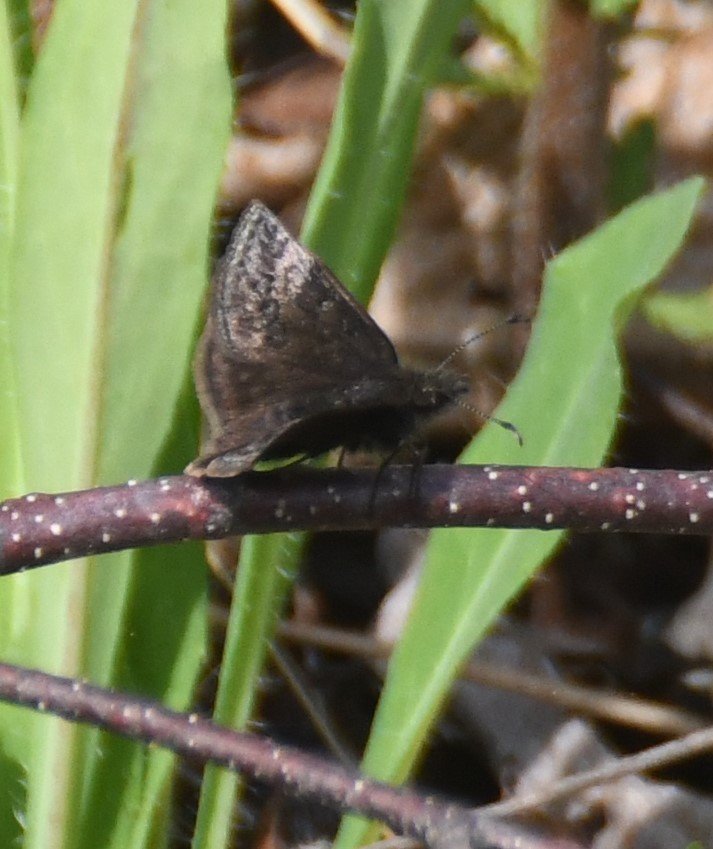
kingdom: Animalia
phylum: Arthropoda
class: Insecta
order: Lepidoptera
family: Hesperiidae
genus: Erynnis
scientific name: Erynnis icelus
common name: Dreamy Duskywing
